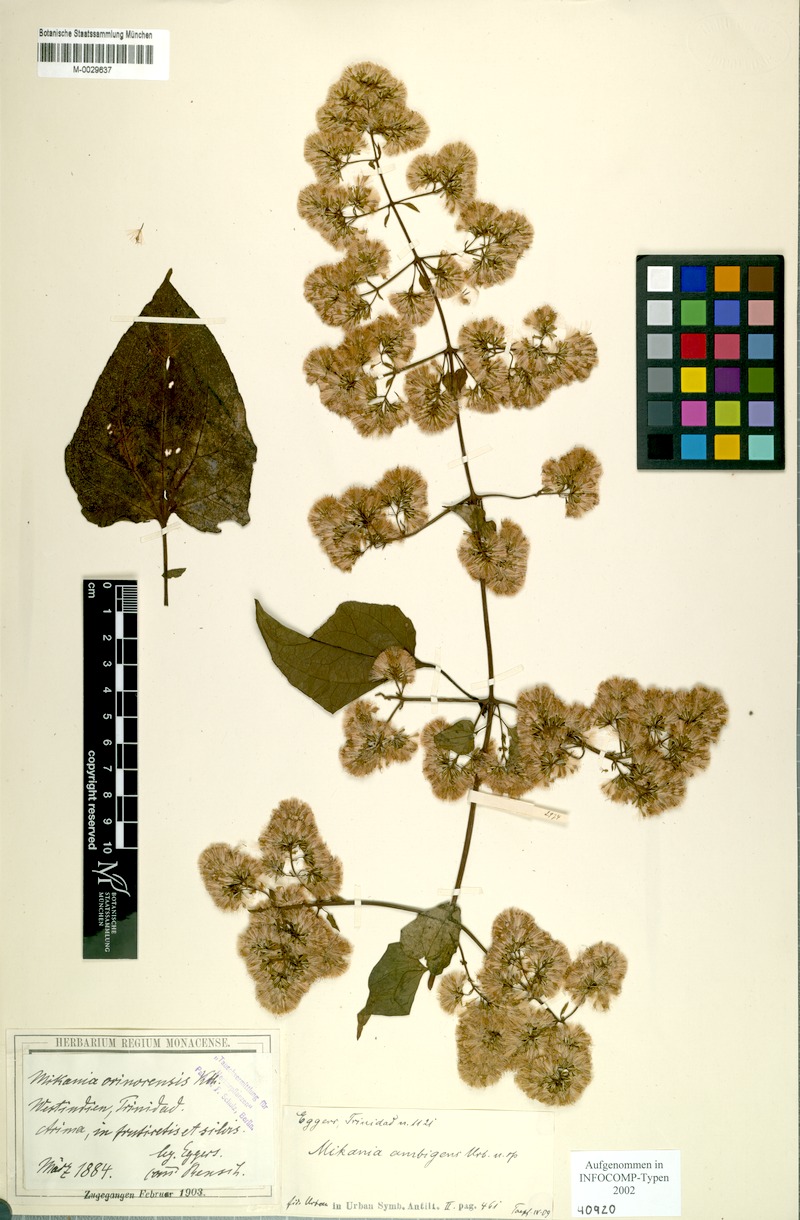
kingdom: Plantae
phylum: Tracheophyta
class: Magnoliopsida
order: Asterales
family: Asteraceae
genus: Mikania
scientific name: Mikania vitifolia
